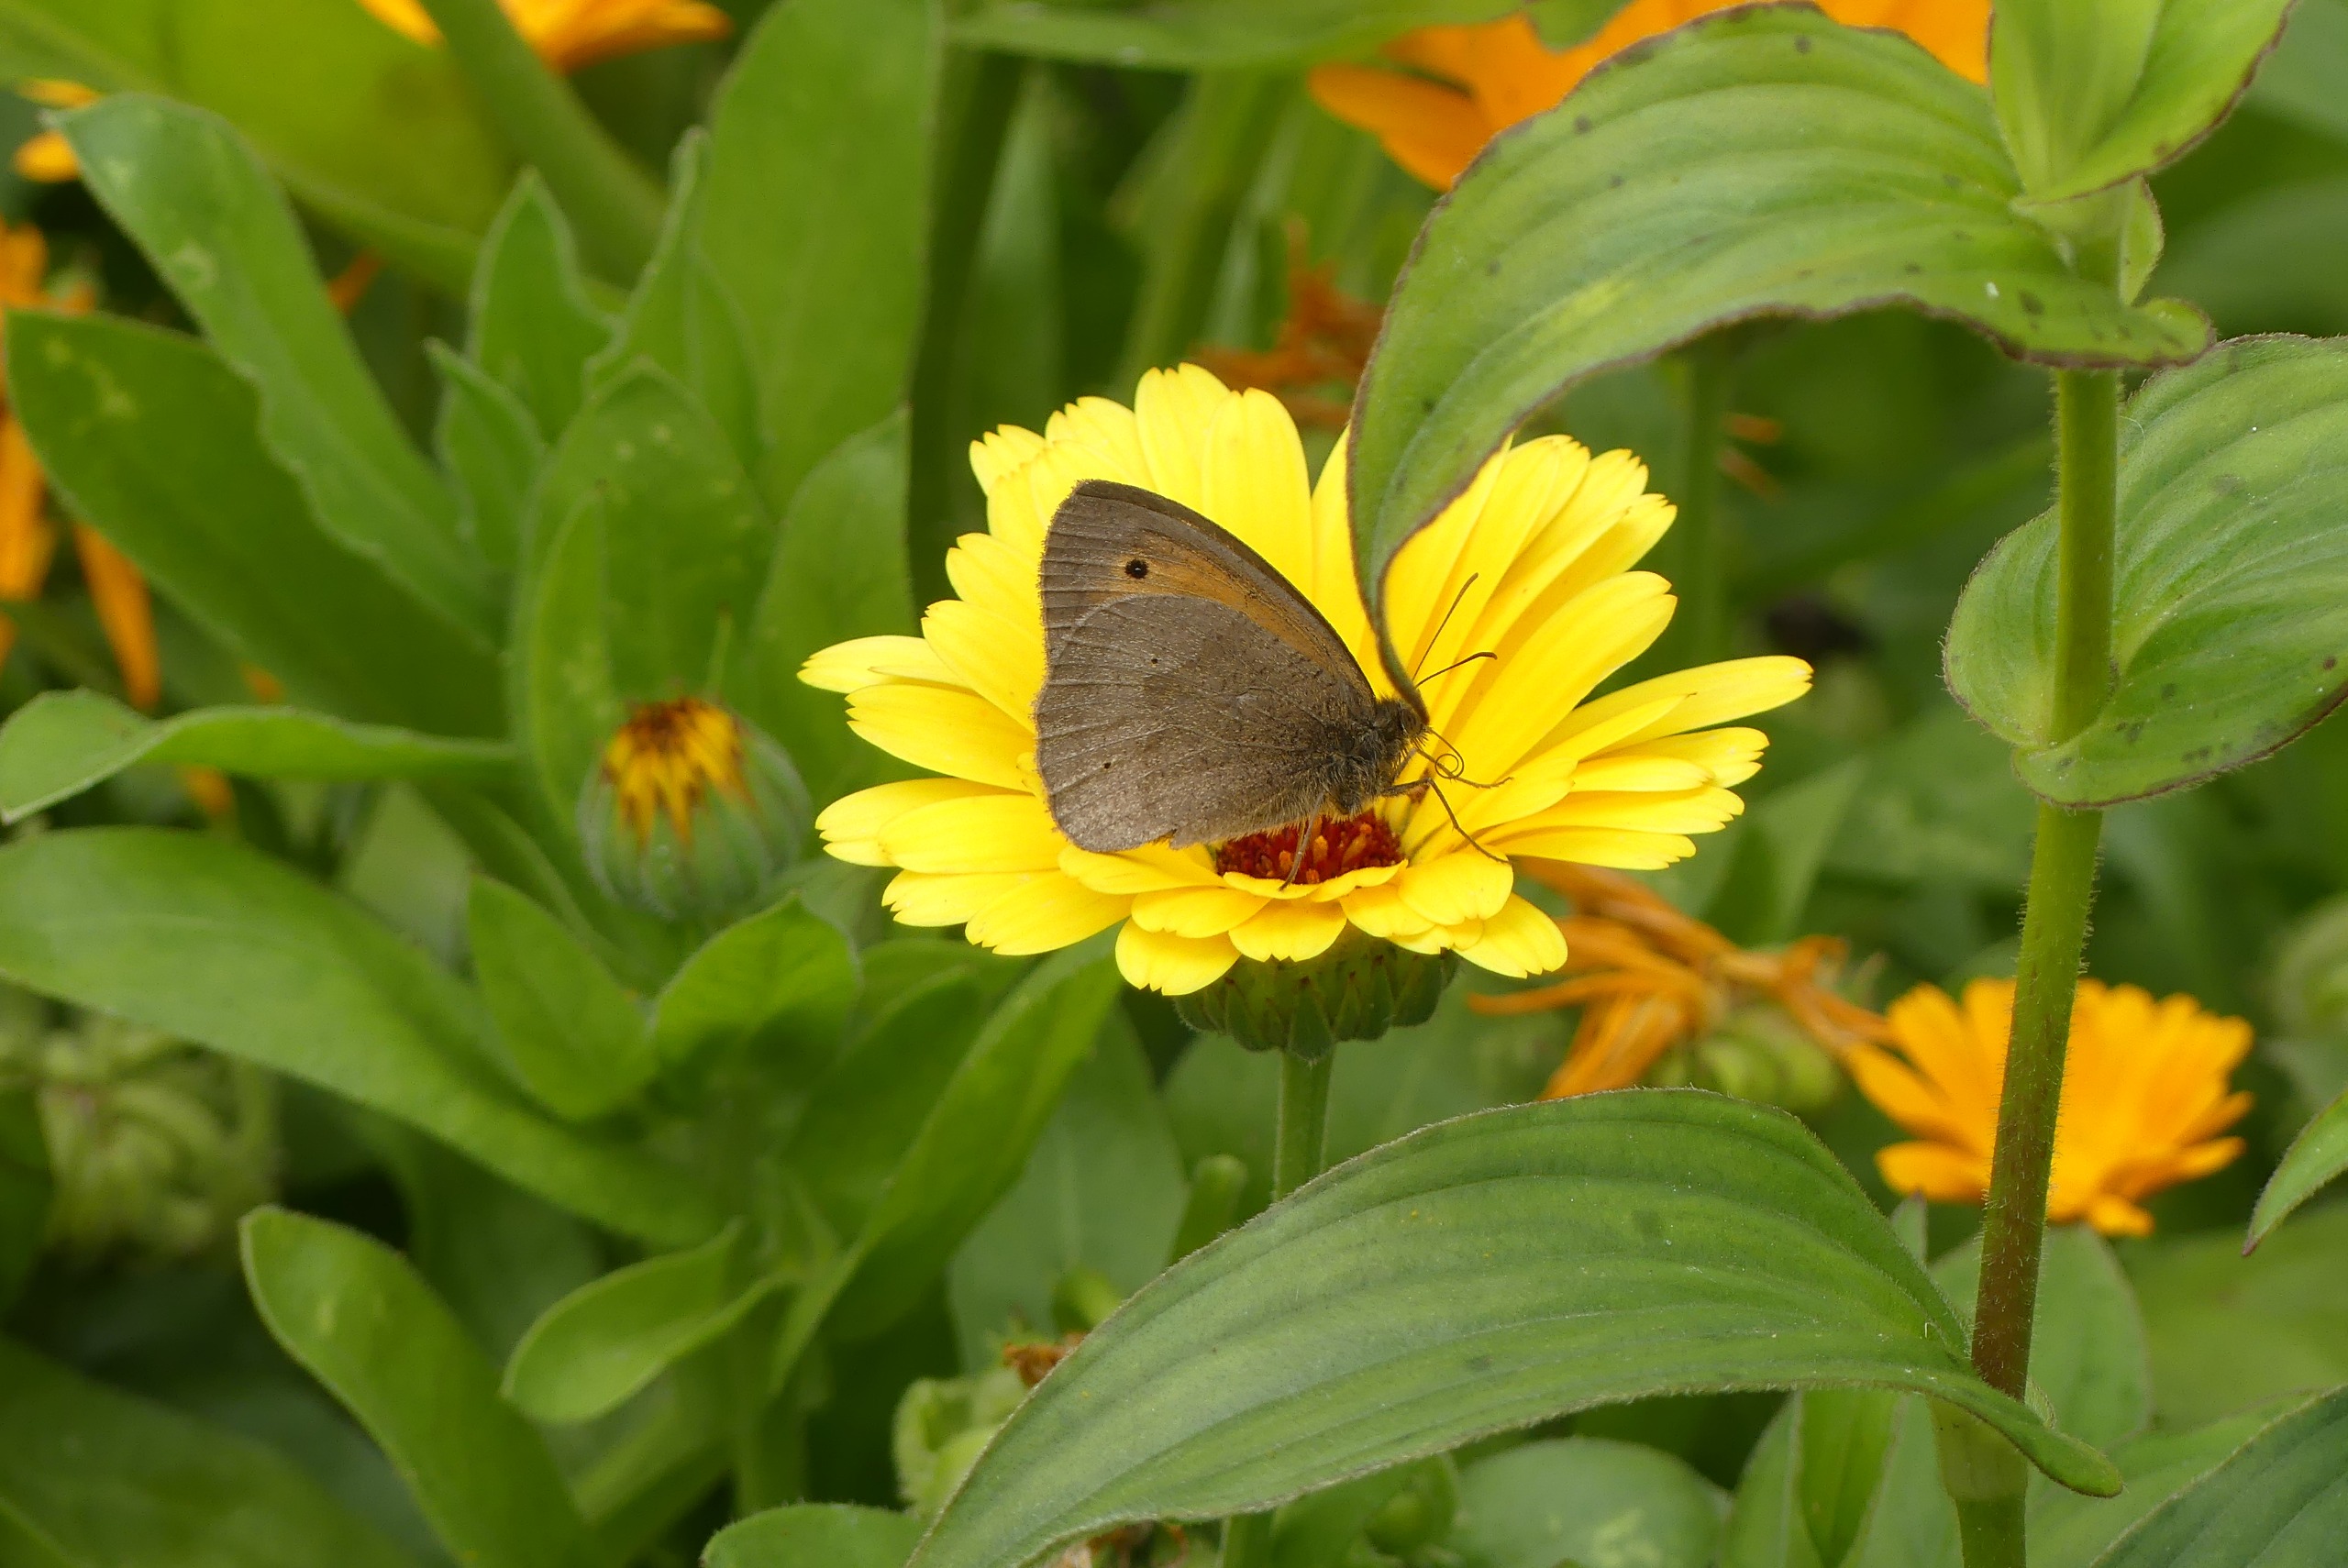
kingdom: Animalia
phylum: Arthropoda
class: Insecta
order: Lepidoptera
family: Nymphalidae
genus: Maniola
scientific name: Maniola jurtina
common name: Græsrandøje
